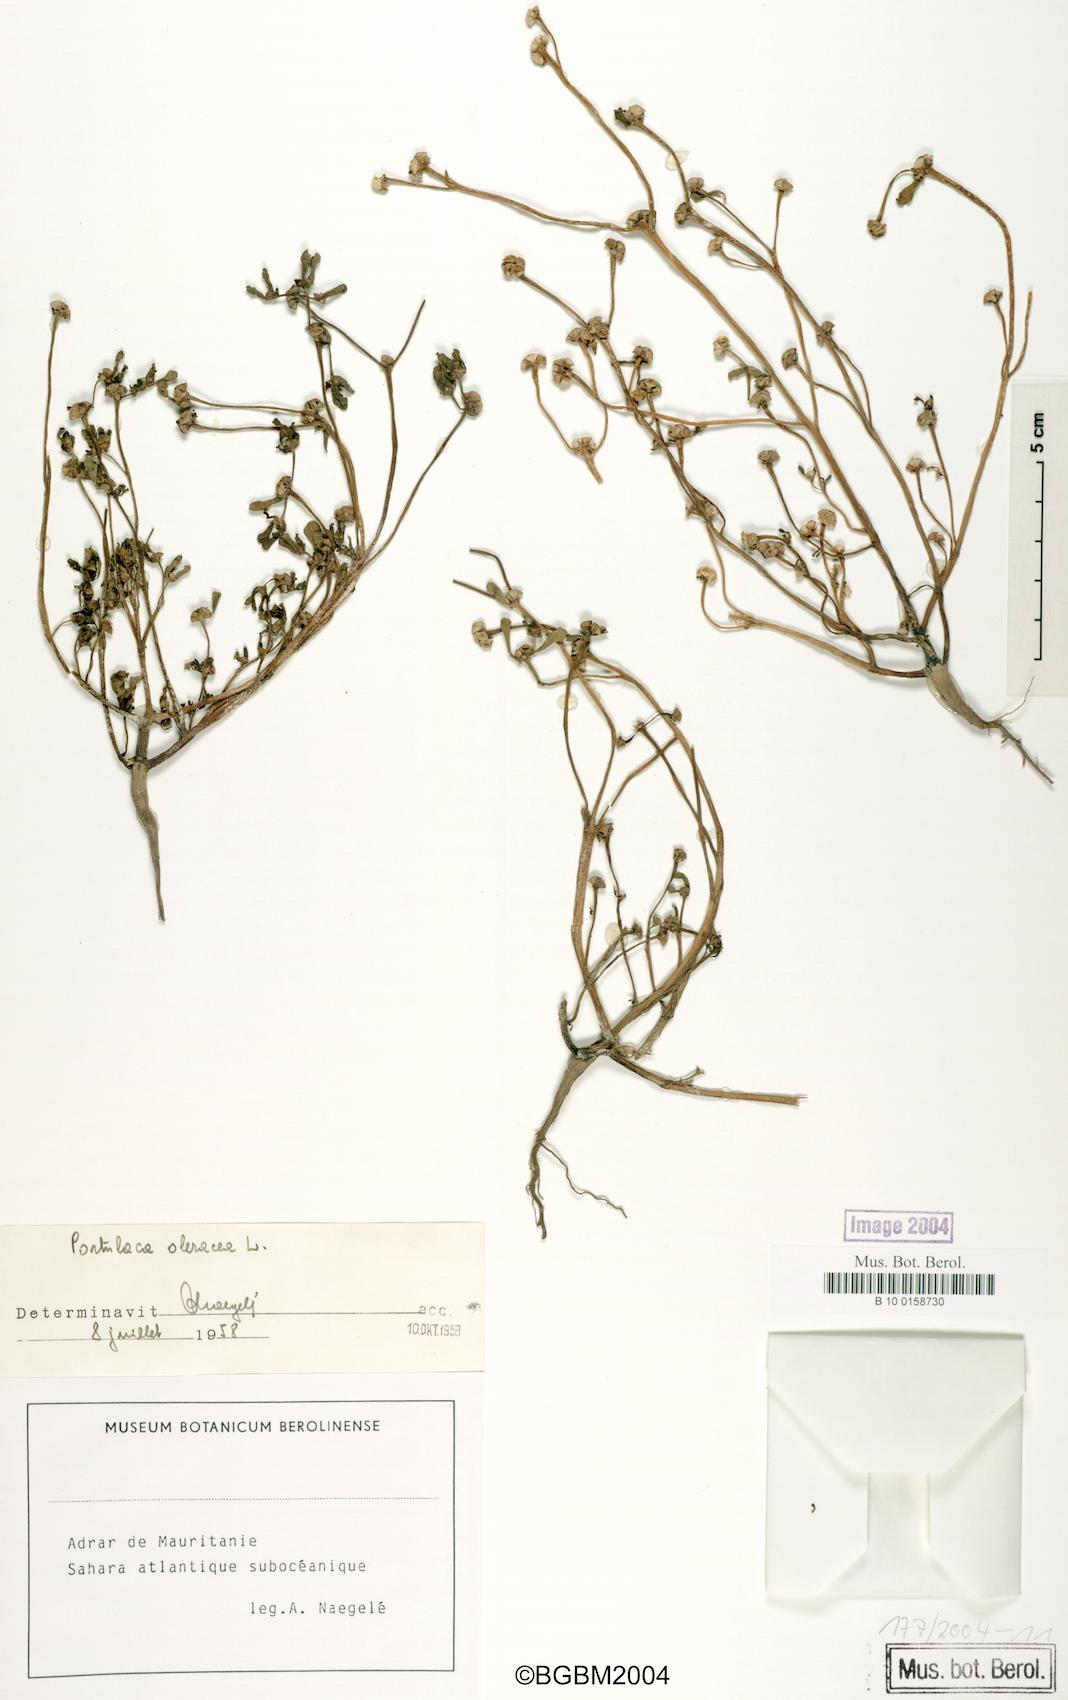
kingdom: Plantae
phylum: Tracheophyta
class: Magnoliopsida
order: Caryophyllales
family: Portulacaceae
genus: Portulaca
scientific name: Portulaca oleracea
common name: Common purslane
